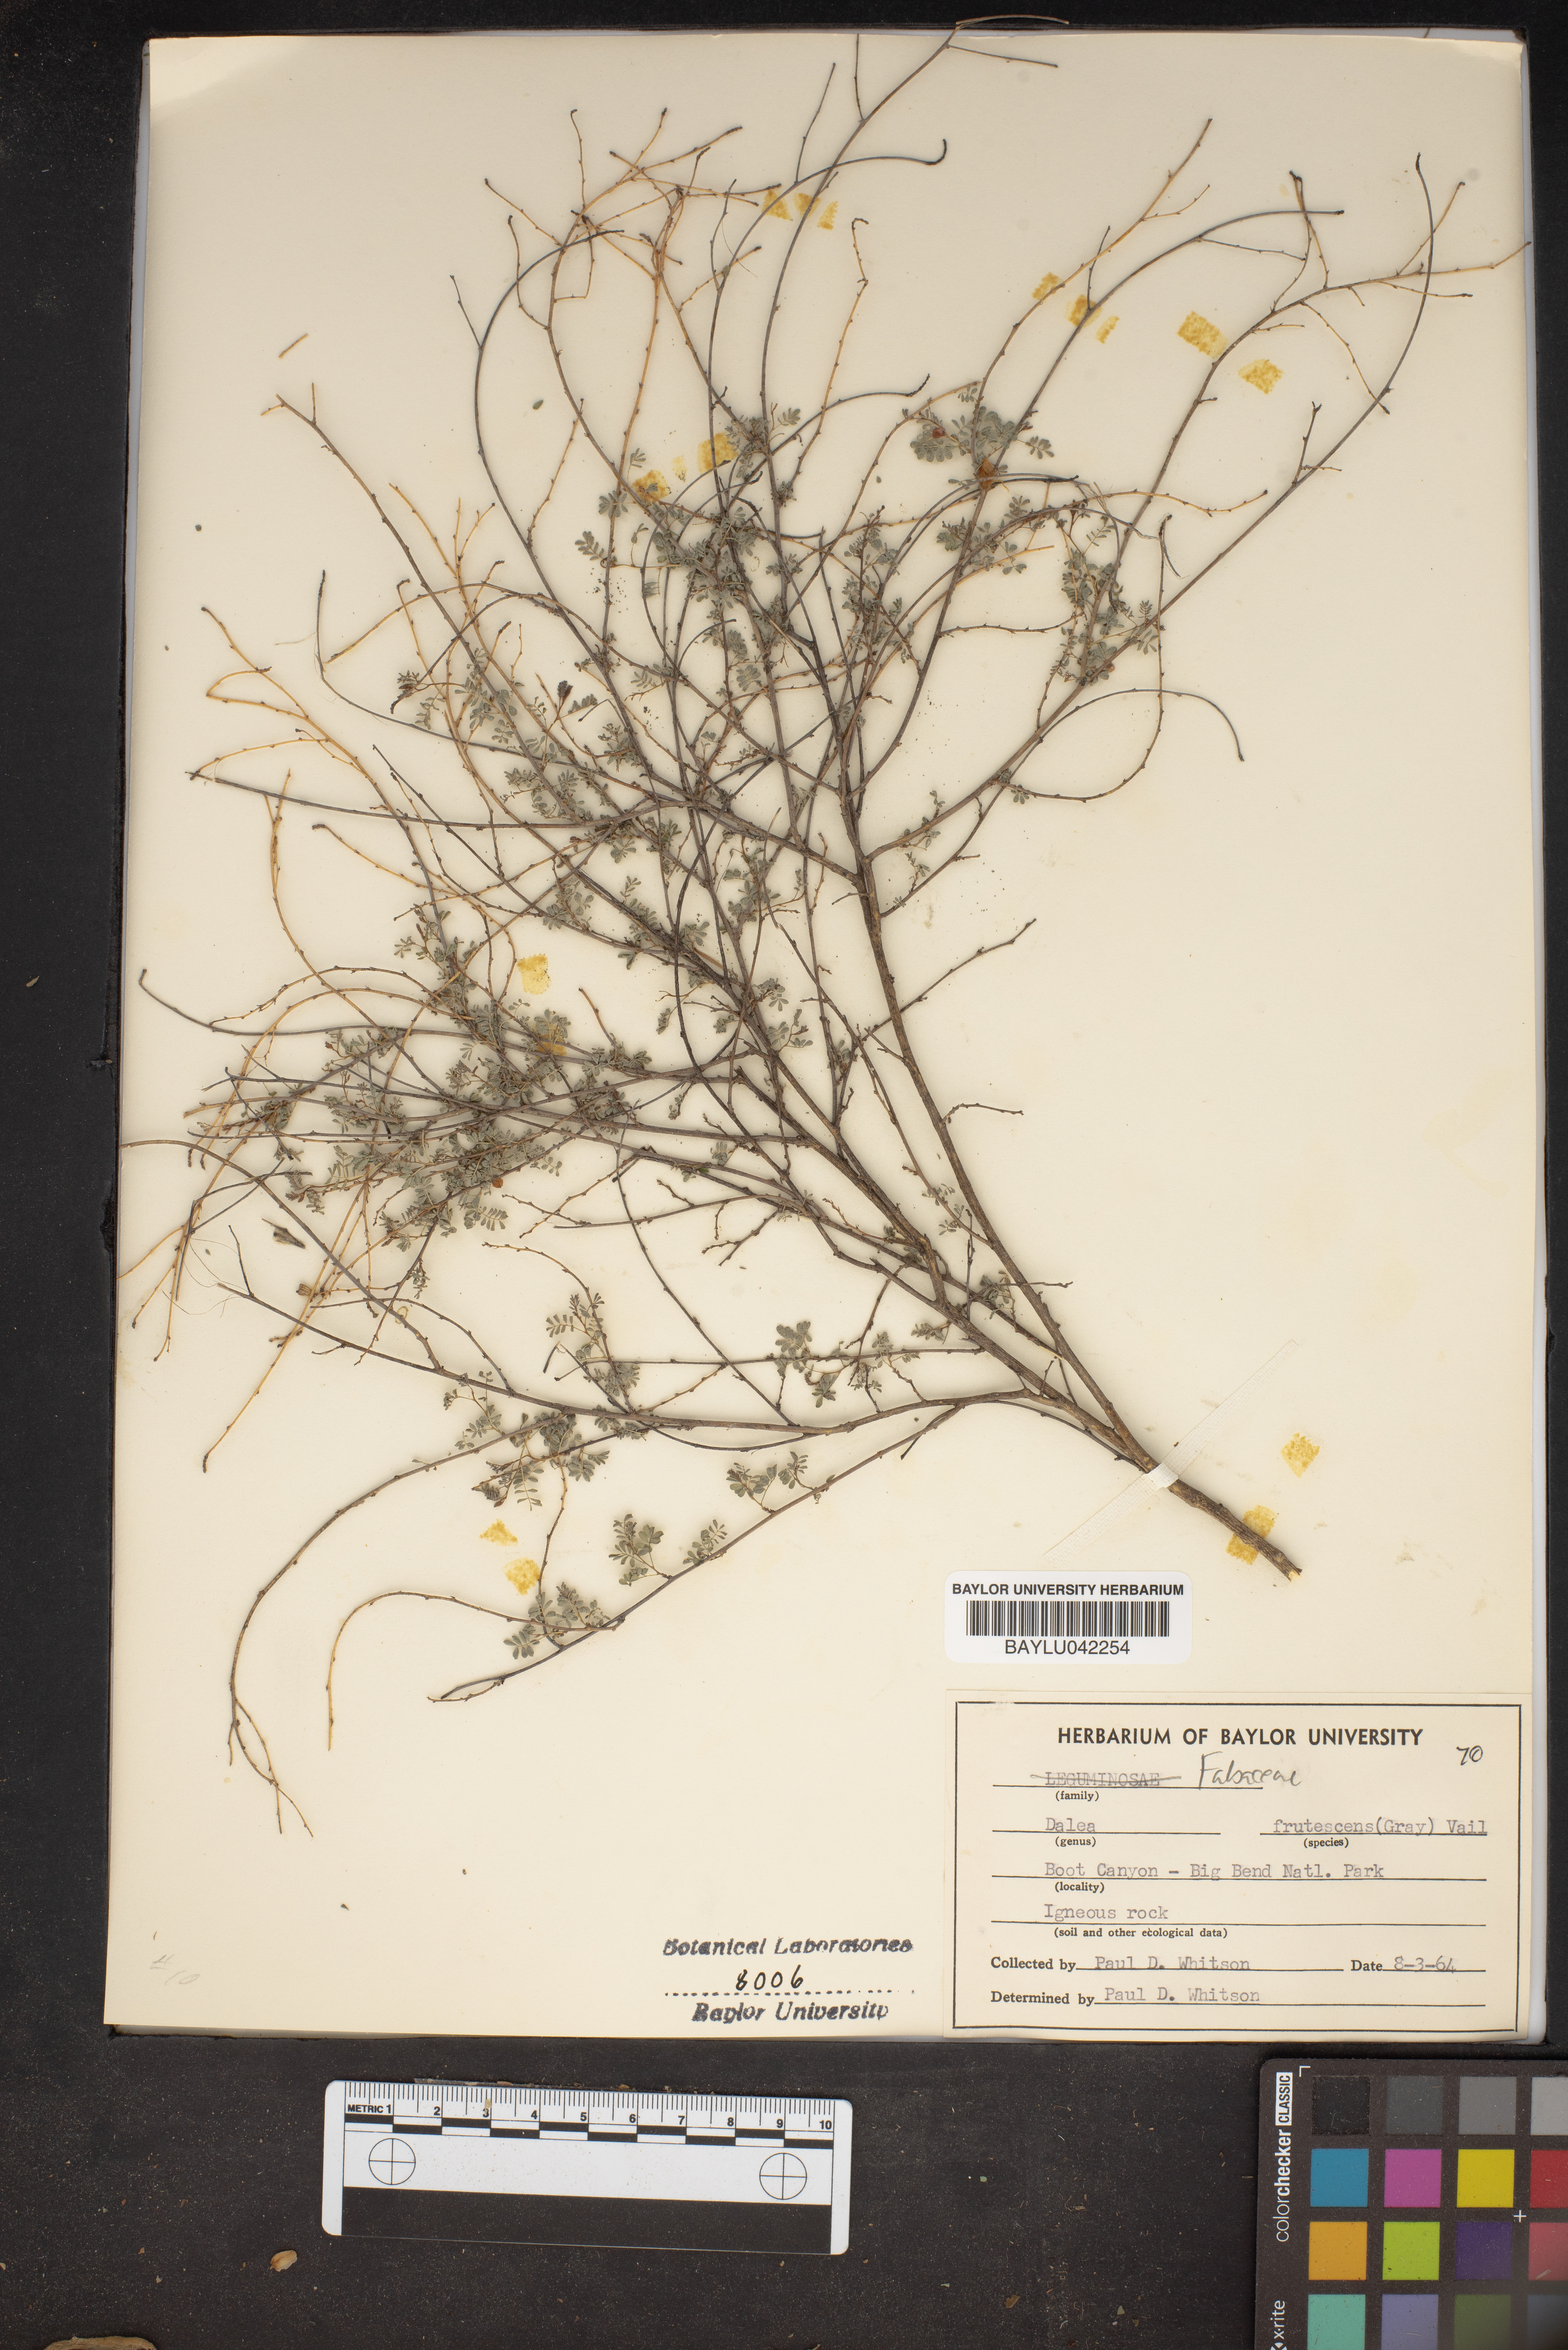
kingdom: Plantae
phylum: Tracheophyta
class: Magnoliopsida
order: Fabales
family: Fabaceae
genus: Dalea
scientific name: Dalea frutescens
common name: Black dalea
